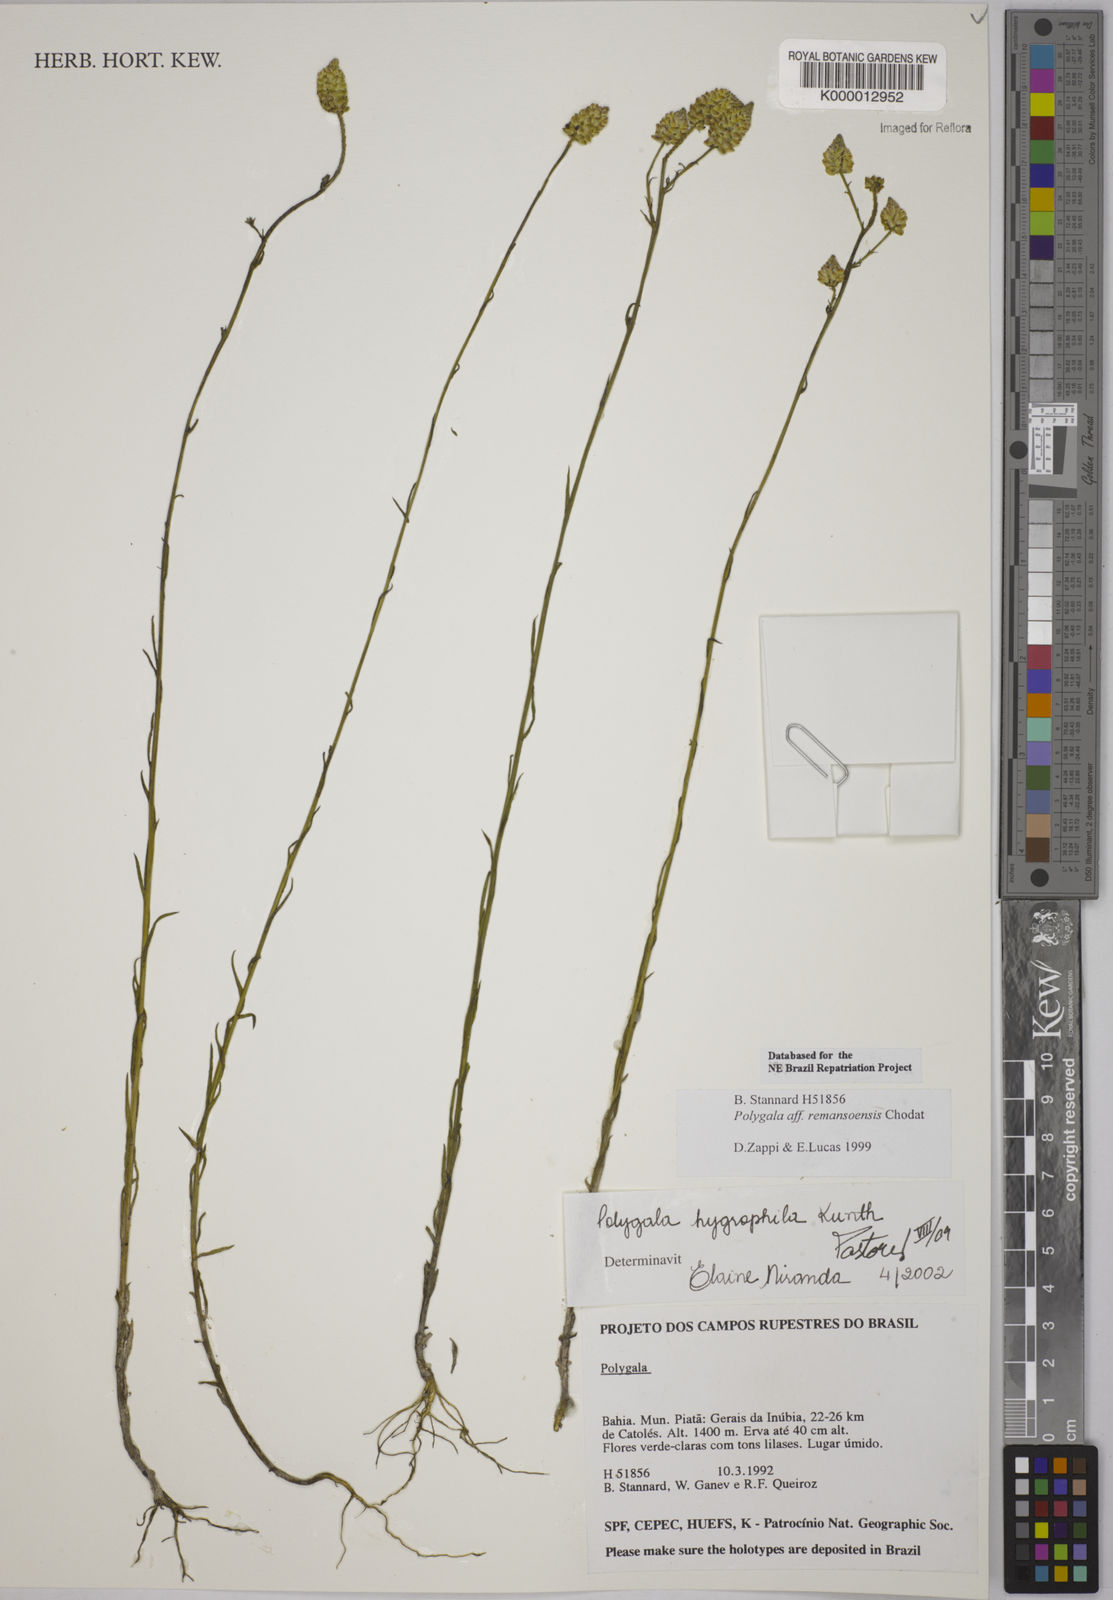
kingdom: Plantae
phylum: Tracheophyta
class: Magnoliopsida
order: Fabales
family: Polygalaceae
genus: Polygala
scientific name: Polygala hygrophila
